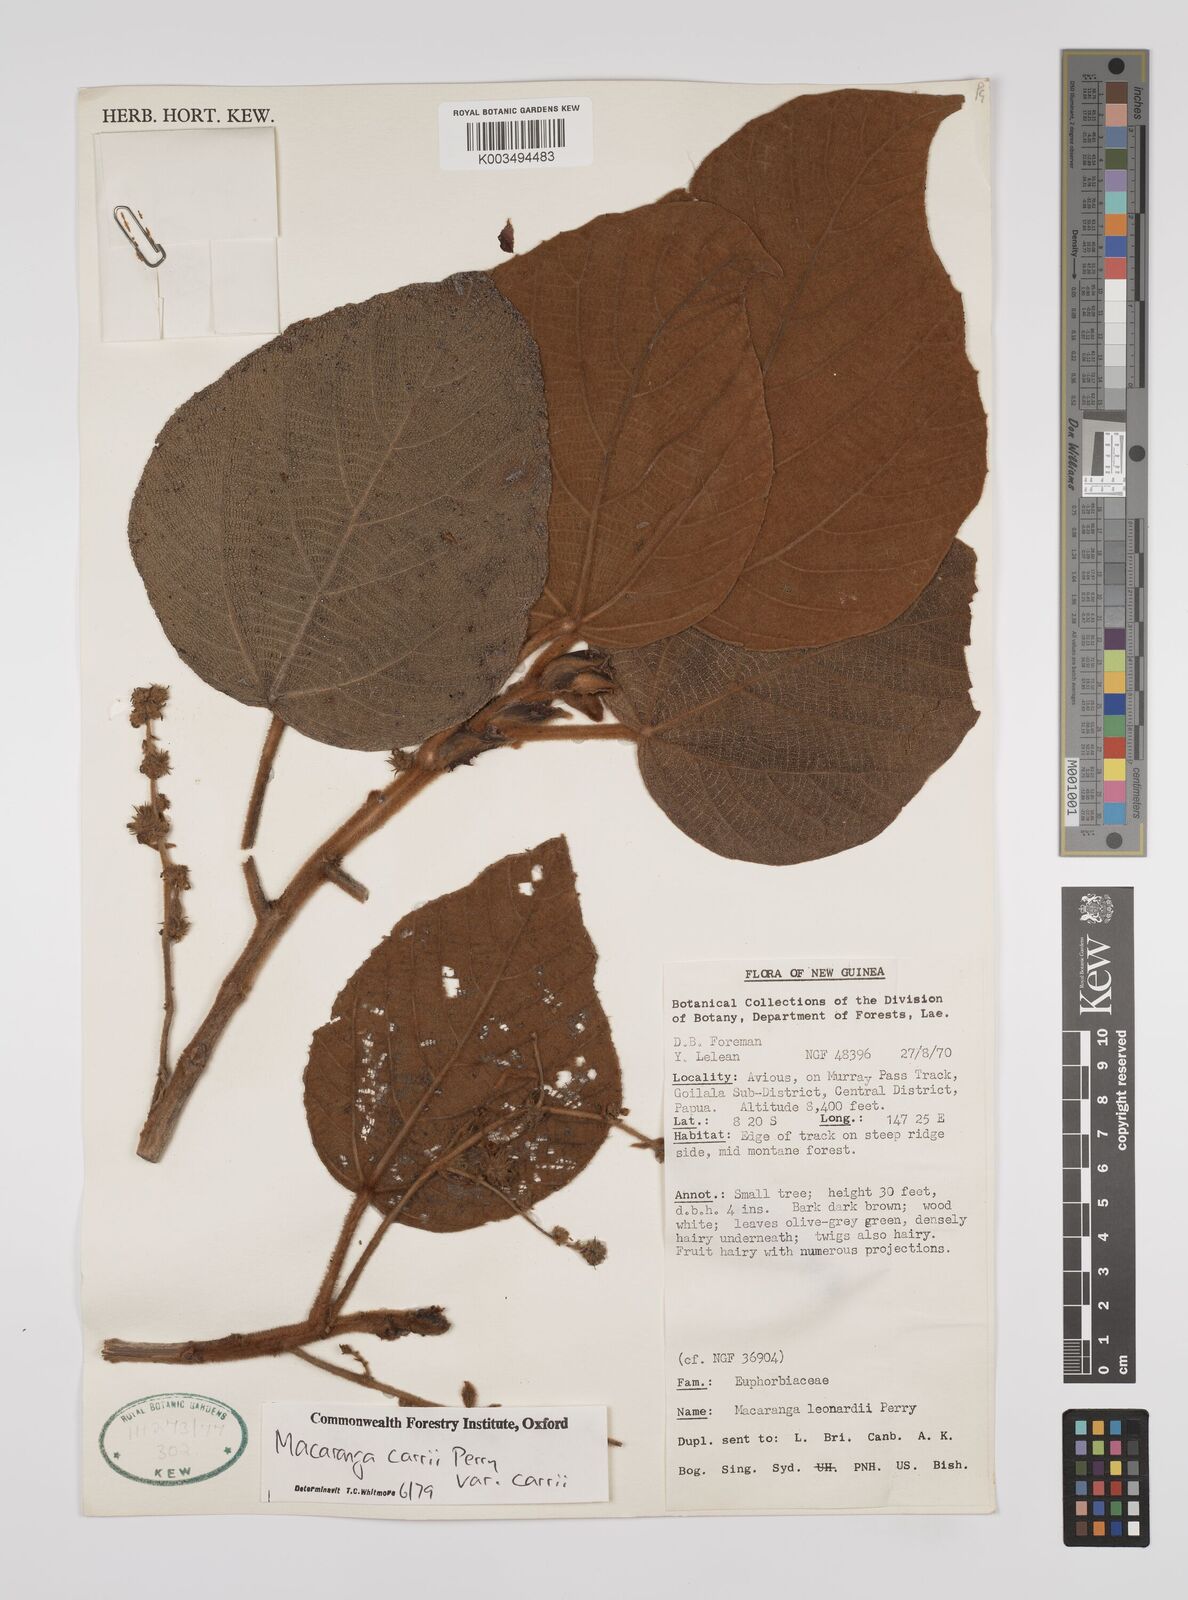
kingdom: Plantae
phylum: Tracheophyta
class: Magnoliopsida
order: Malpighiales
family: Euphorbiaceae
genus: Macaranga
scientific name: Macaranga carrii
